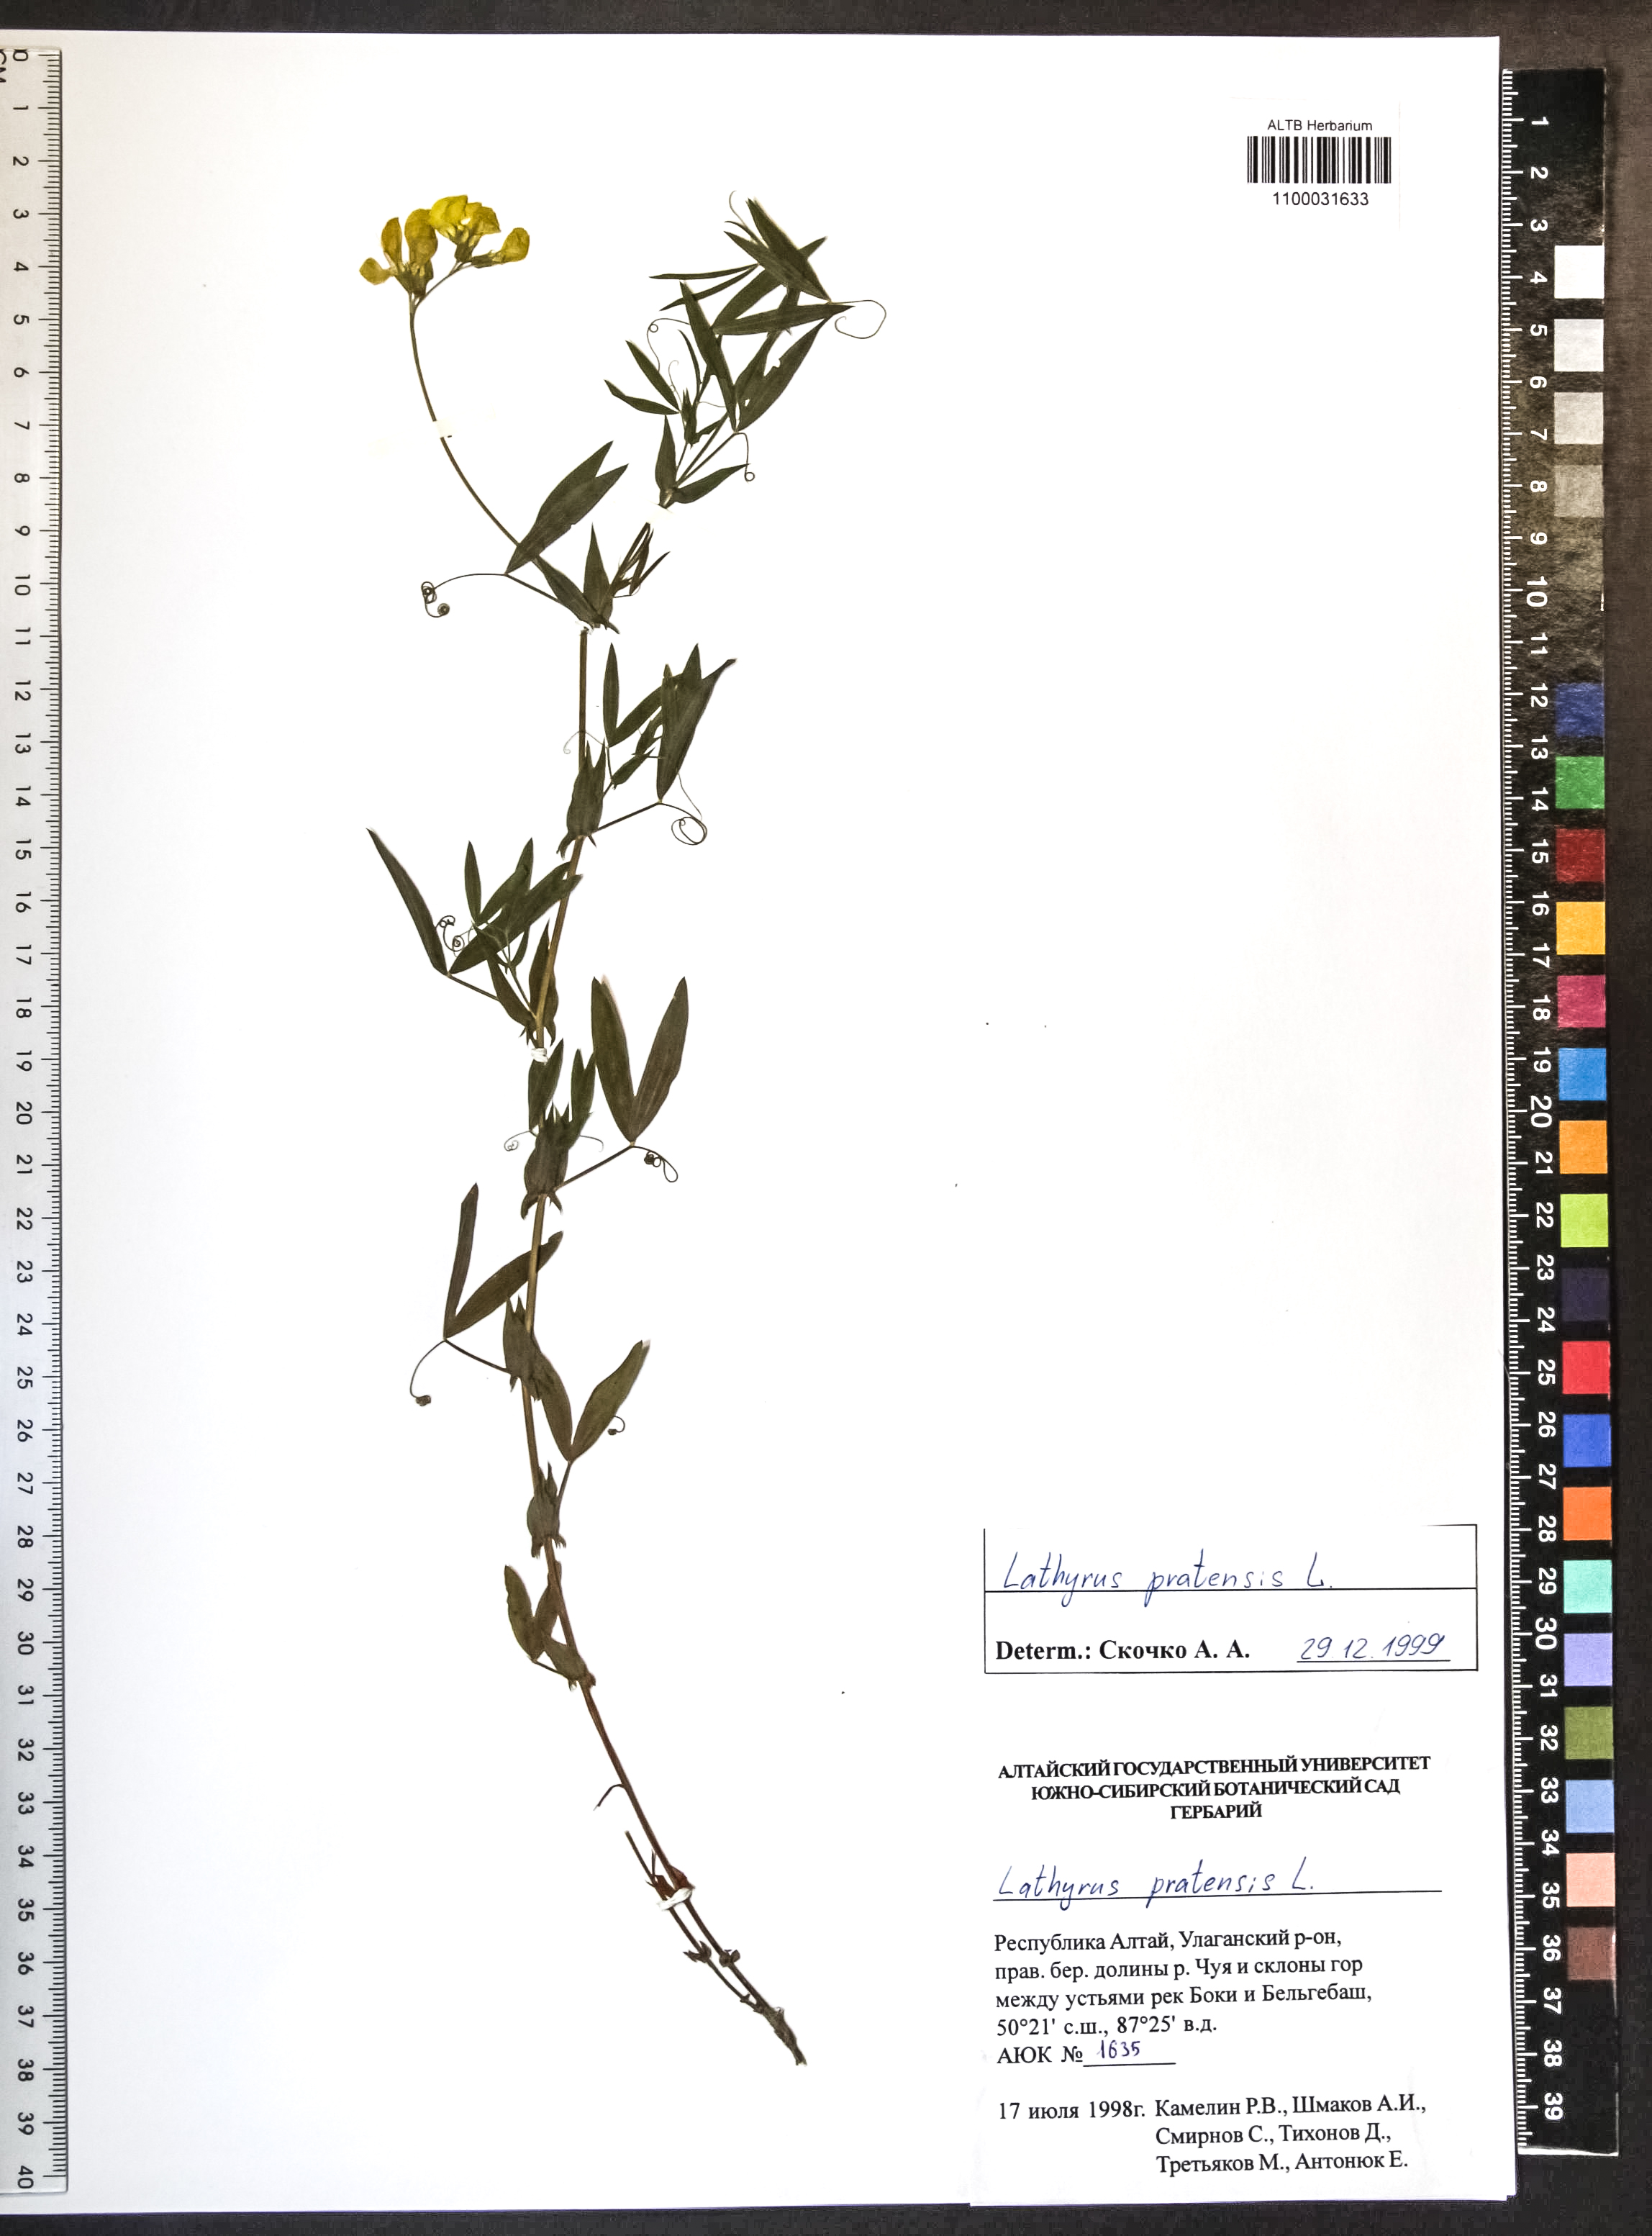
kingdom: Plantae
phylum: Tracheophyta
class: Magnoliopsida
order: Fabales
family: Fabaceae
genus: Lathyrus
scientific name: Lathyrus pratensis
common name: Meadow vetchling
